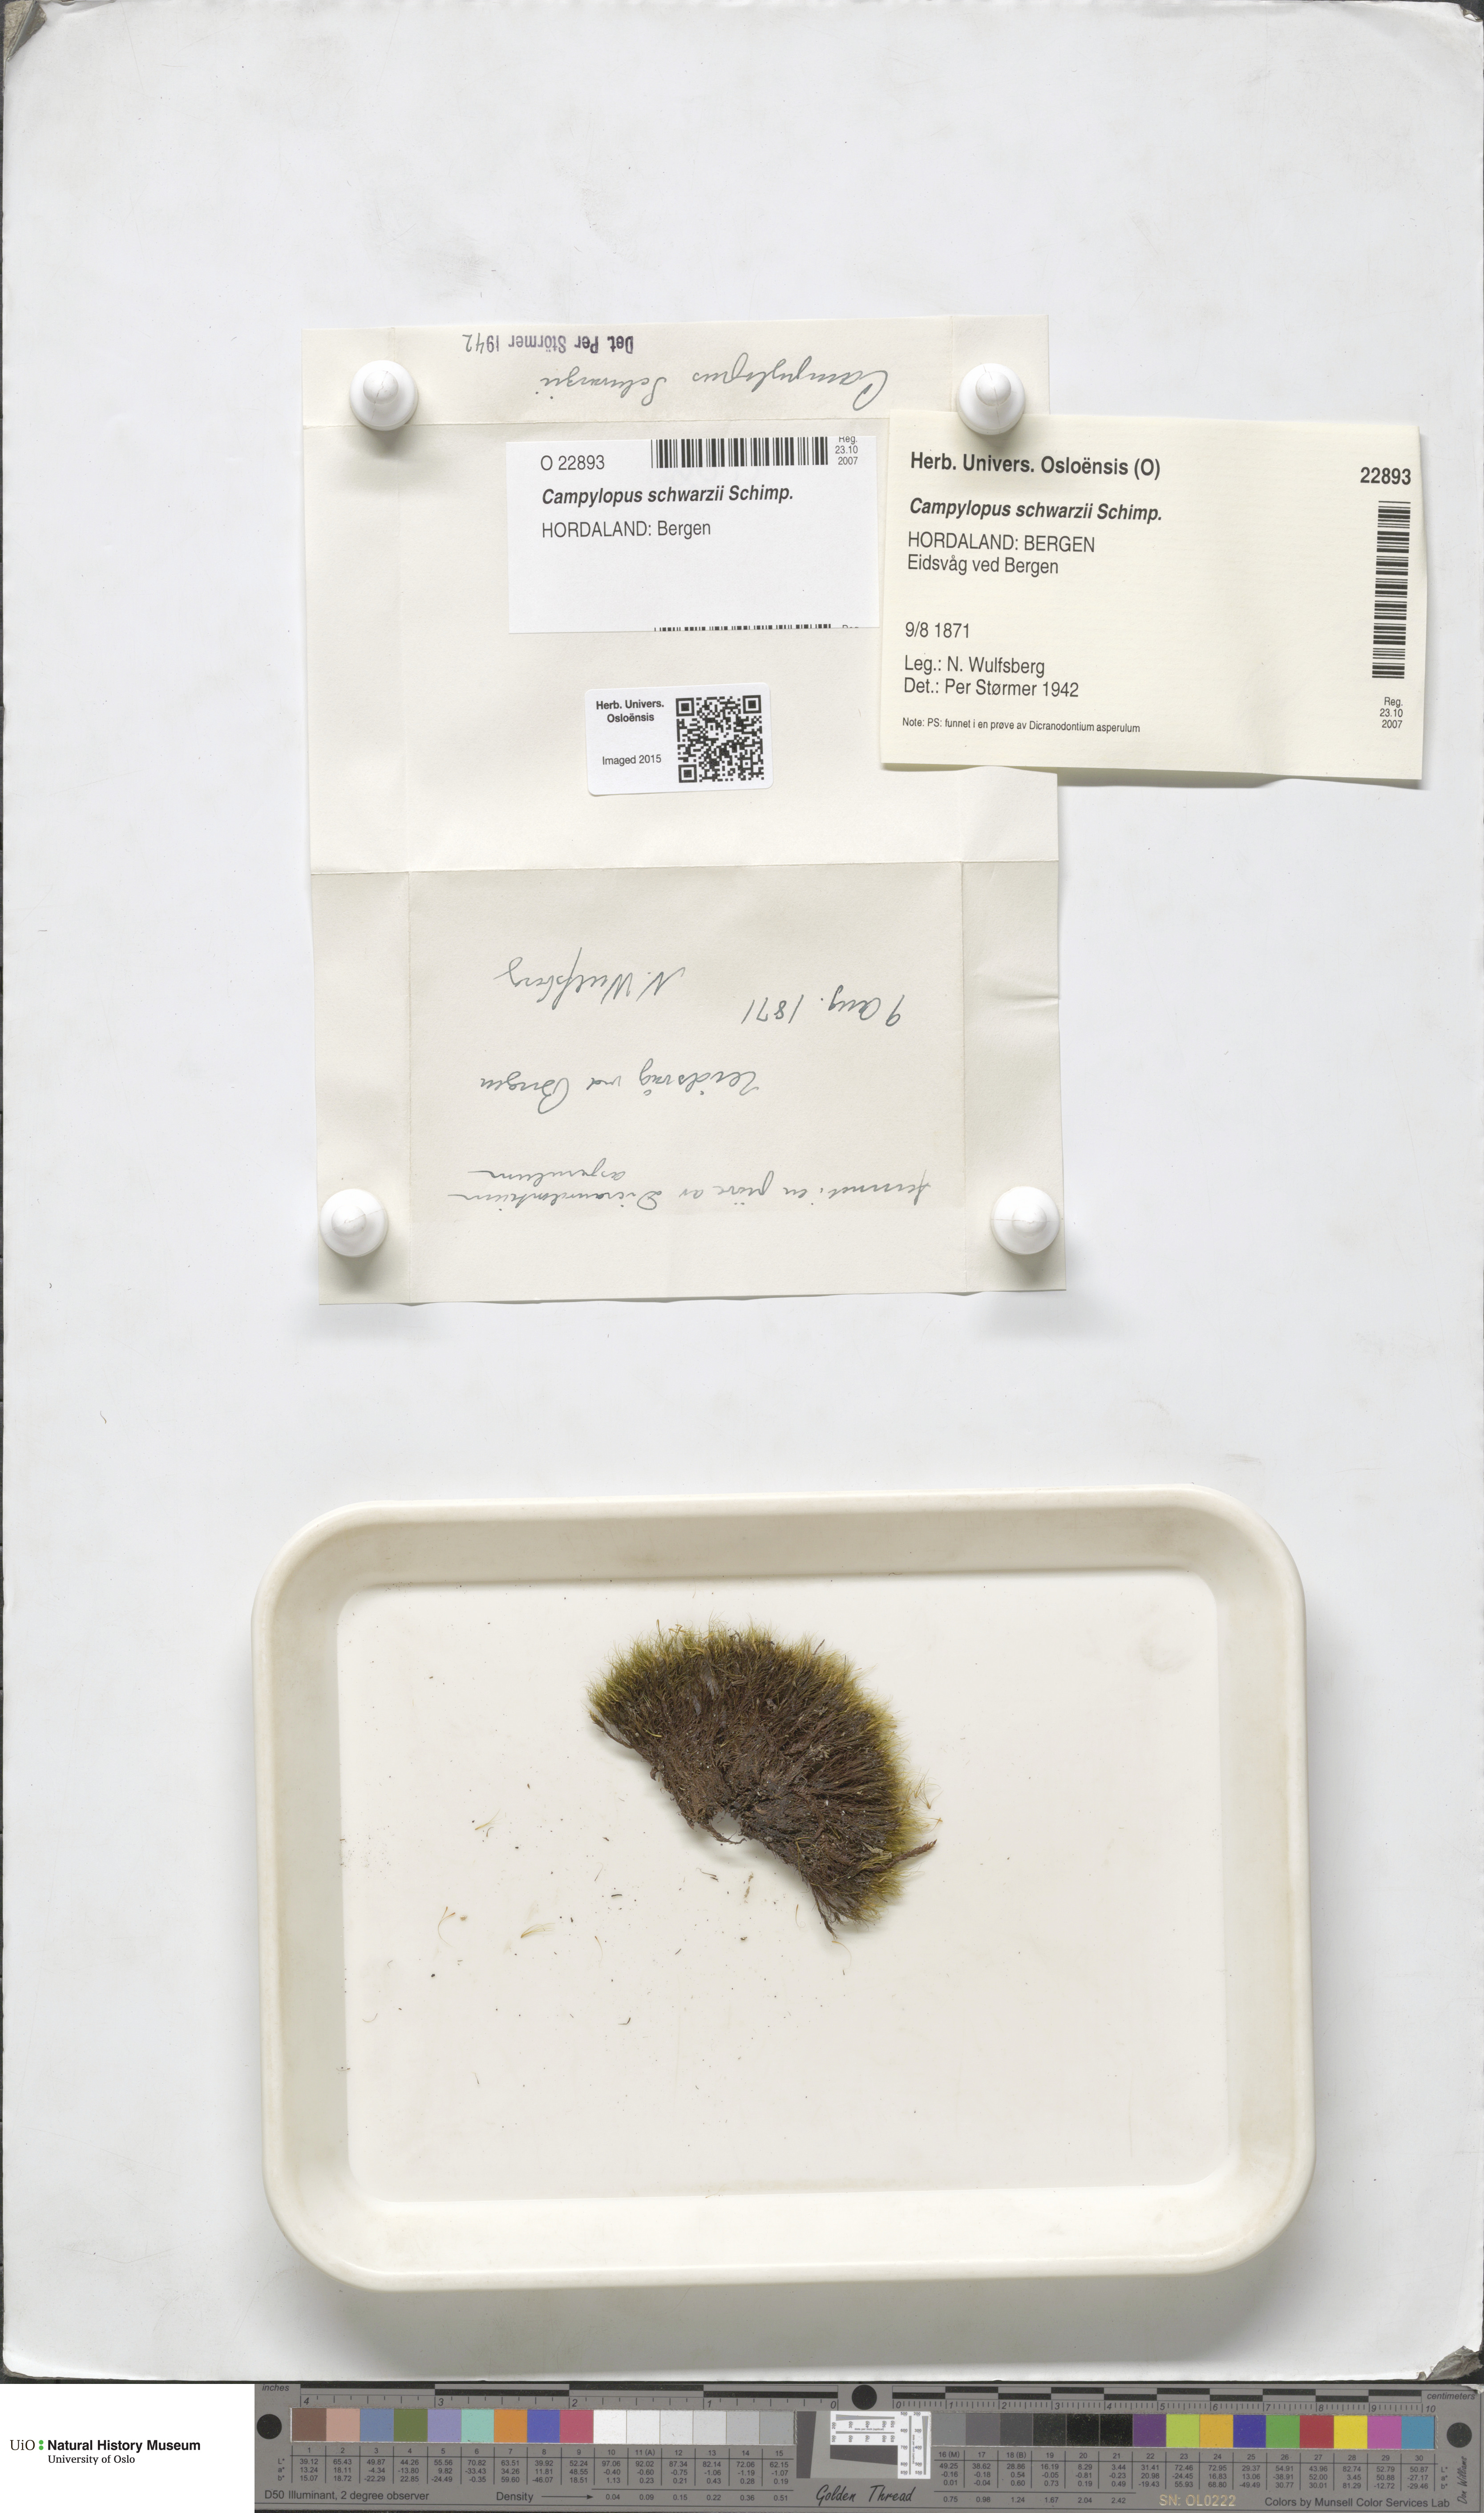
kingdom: Plantae
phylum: Bryophyta
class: Bryopsida
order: Dicranales
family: Leucobryaceae
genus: Campylopus
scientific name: Campylopus gracilis
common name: Schwarz's swan-neck moss
